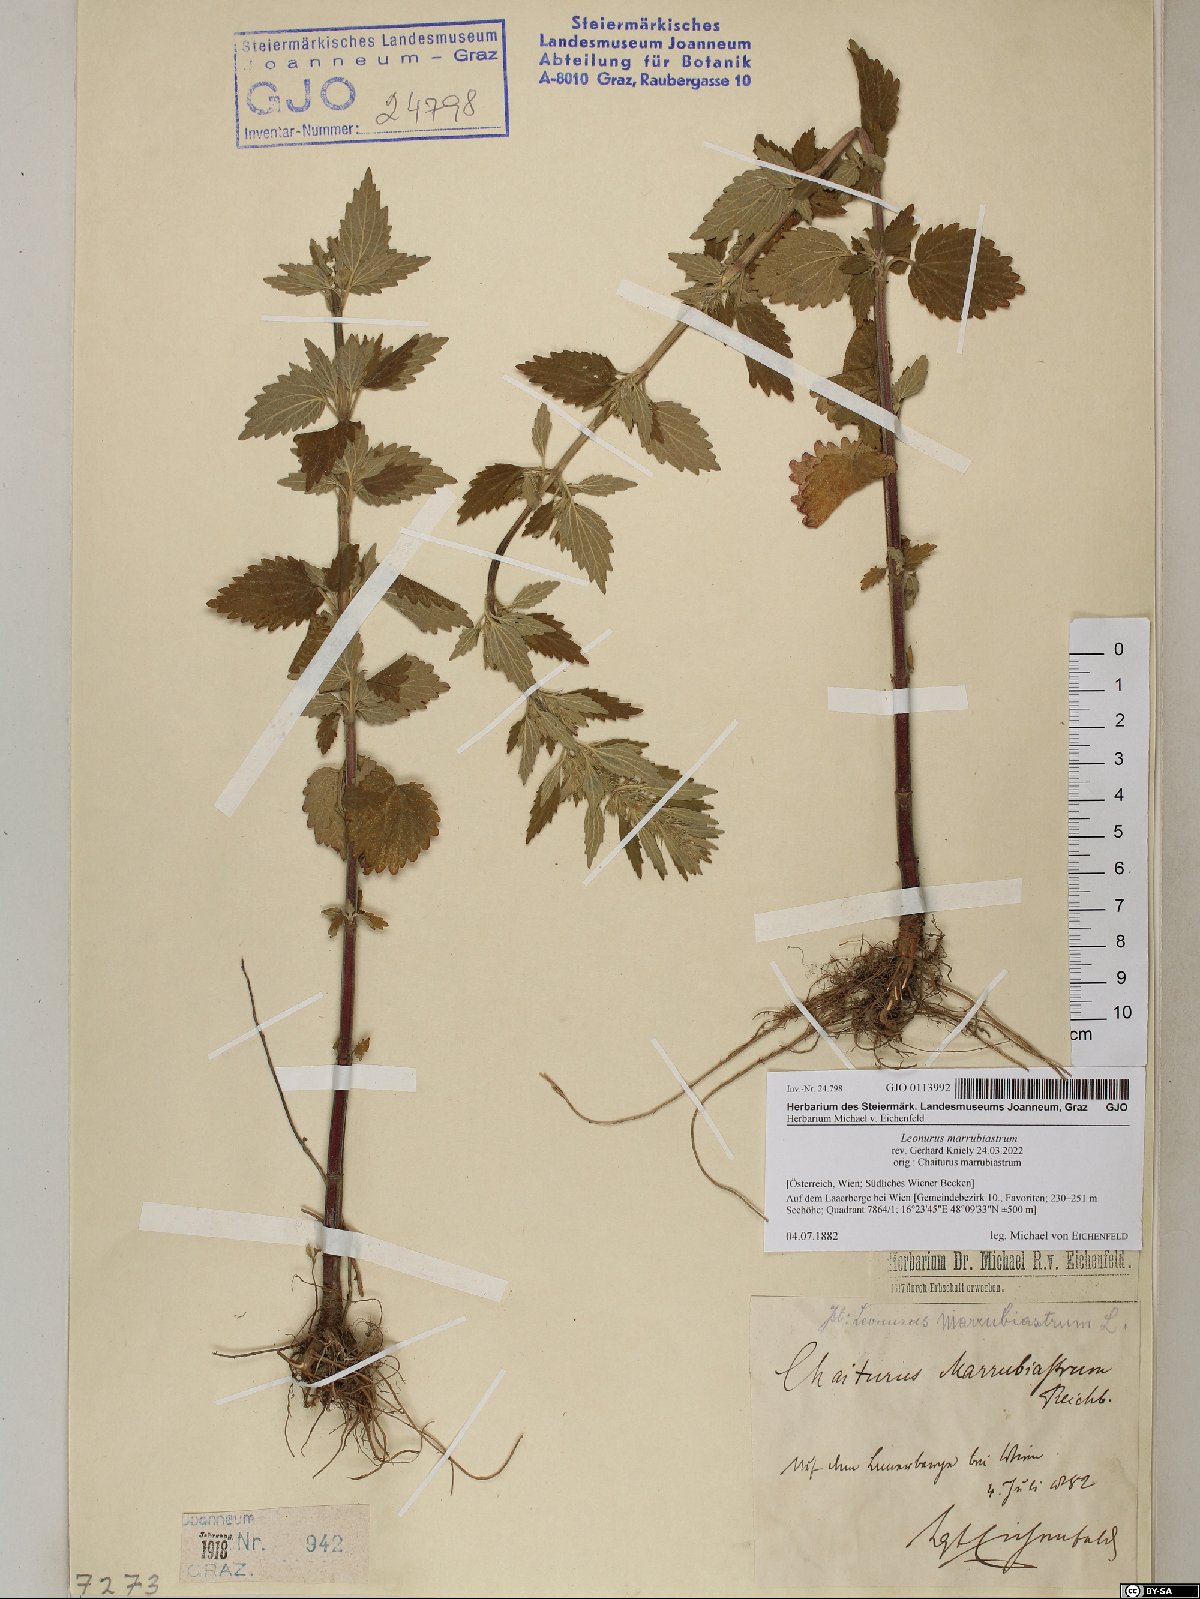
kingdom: Plantae
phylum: Tracheophyta
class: Magnoliopsida
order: Lamiales
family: Lamiaceae
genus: Chaiturus
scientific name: Chaiturus marrubiastrum
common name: Lion's tail
